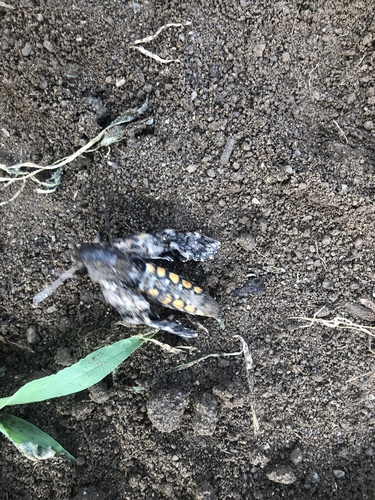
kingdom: Animalia
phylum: Arthropoda
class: Insecta
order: Lepidoptera
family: Sphingidae
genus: Manduca
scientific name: Manduca sexta
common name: Carolina sphinx
